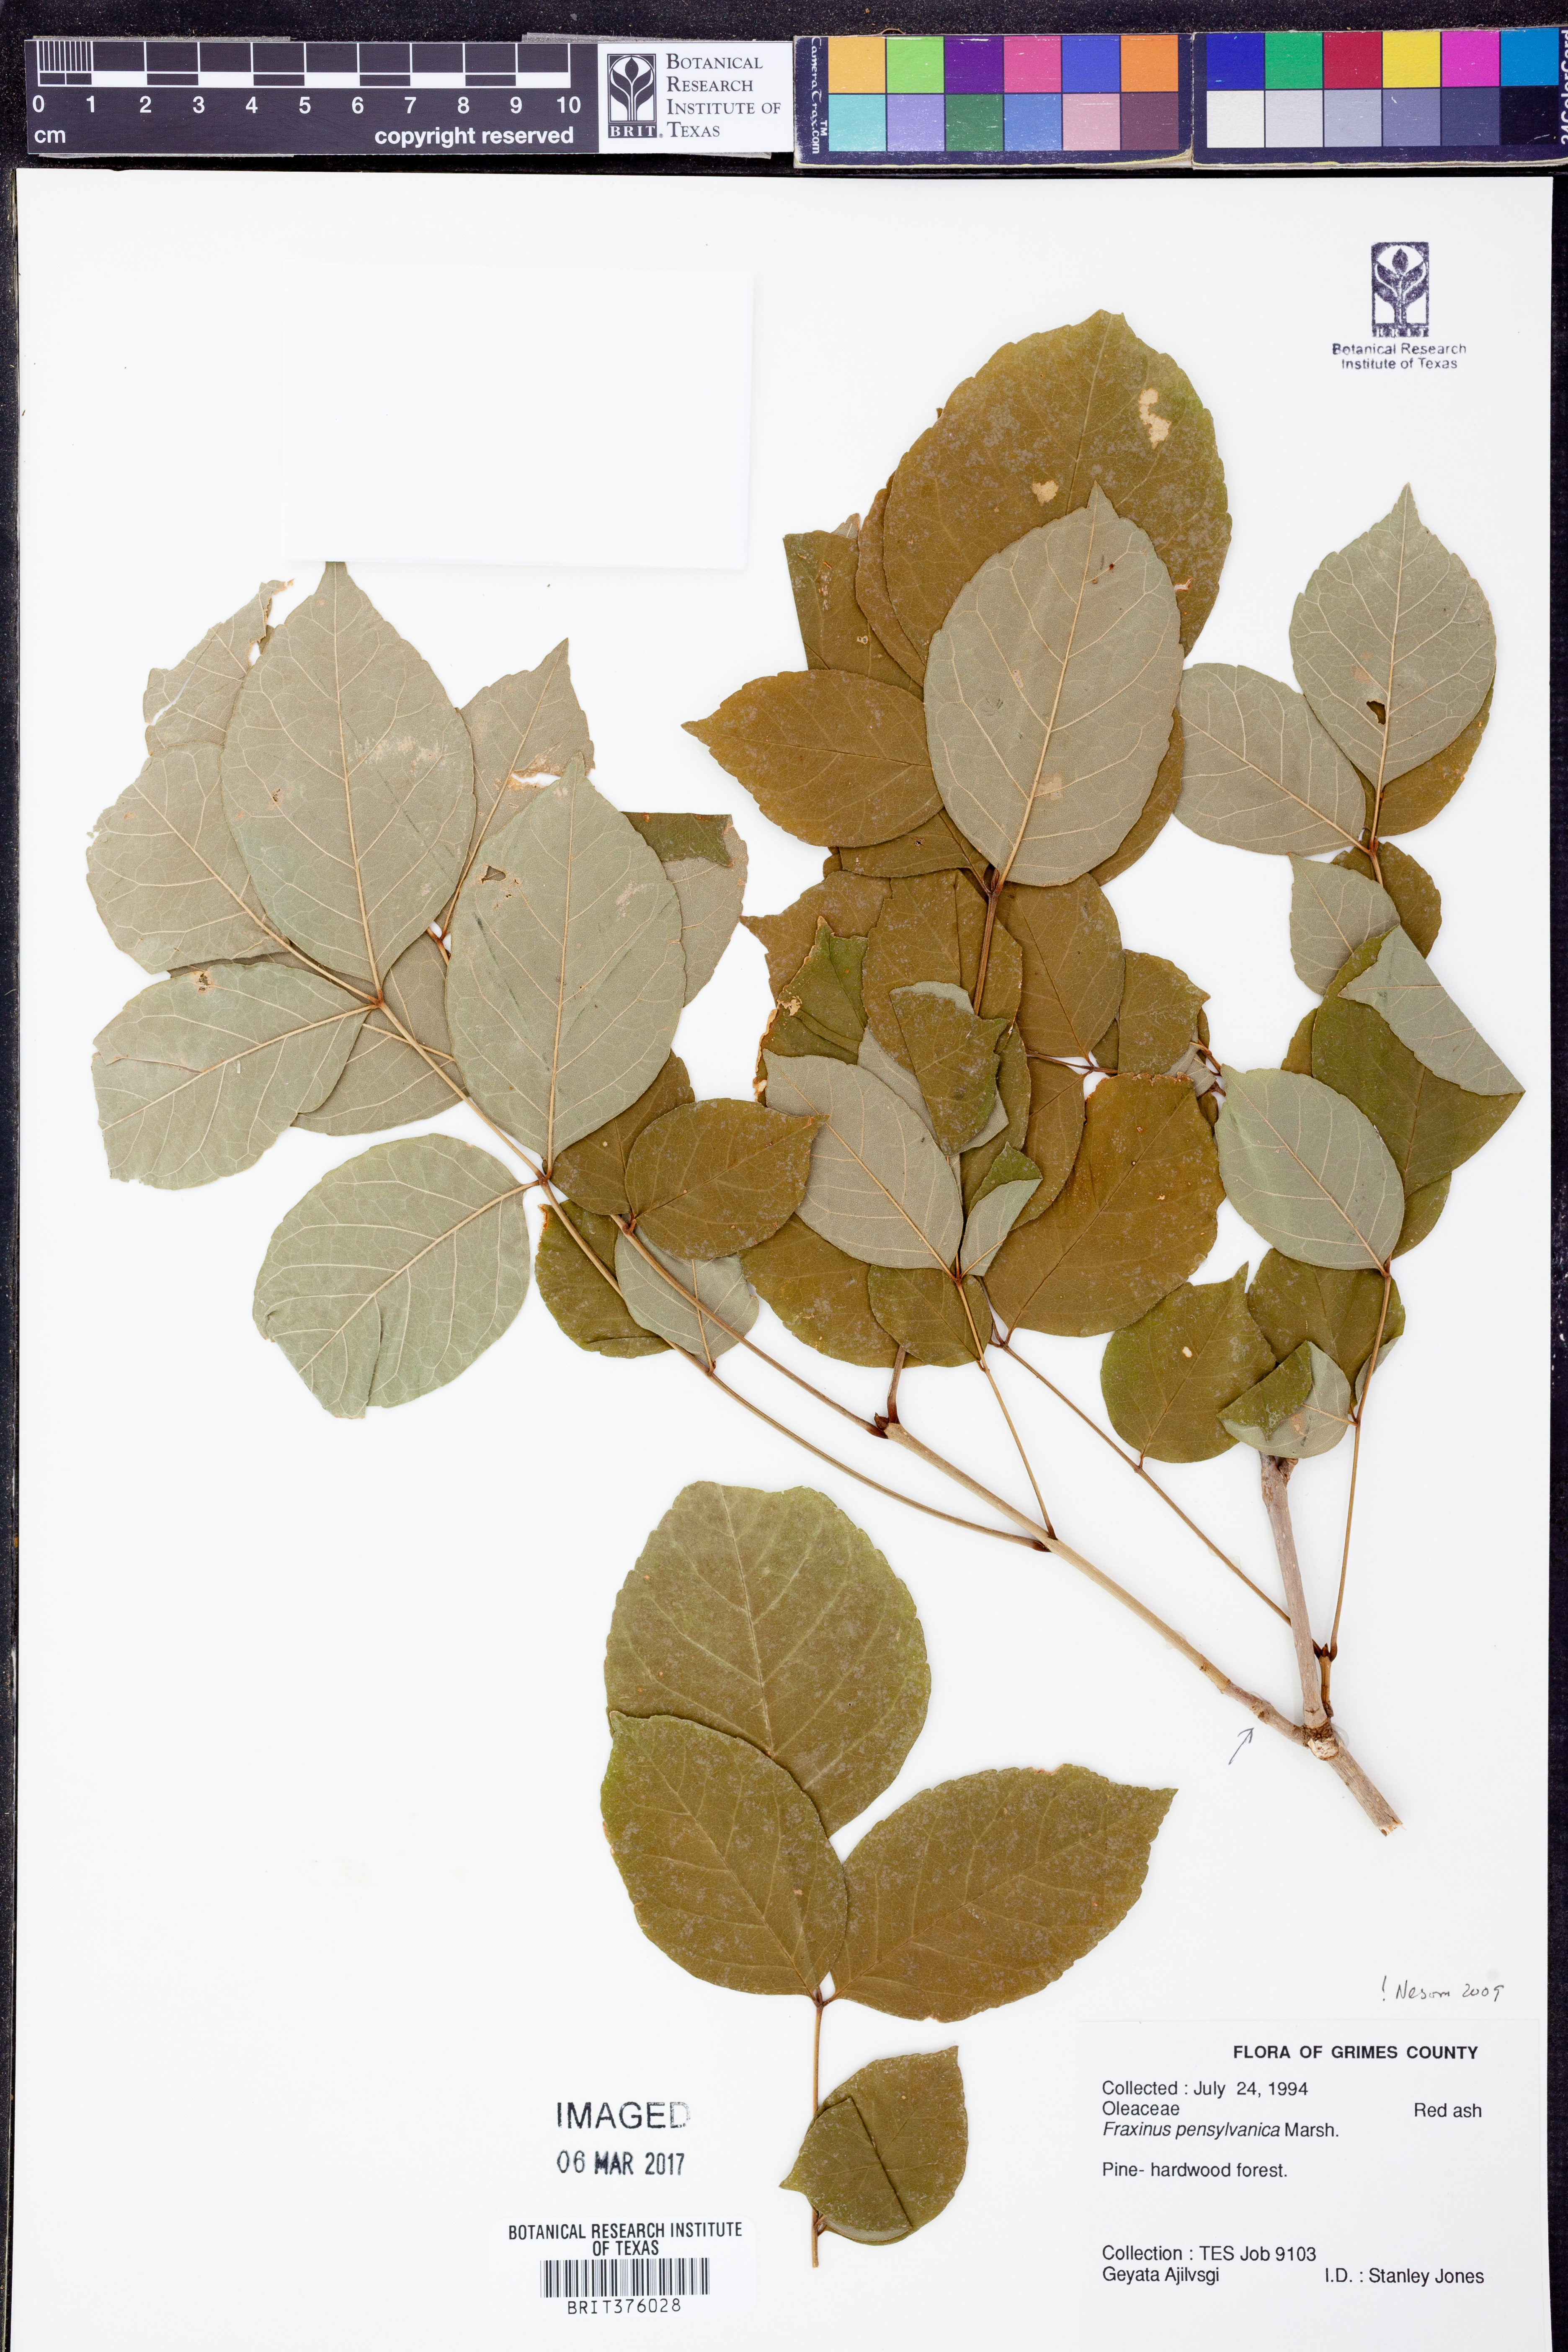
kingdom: Plantae
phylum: Tracheophyta
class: Magnoliopsida
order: Lamiales
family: Oleaceae
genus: Fraxinus
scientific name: Fraxinus pennsylvanica
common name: Green ash
